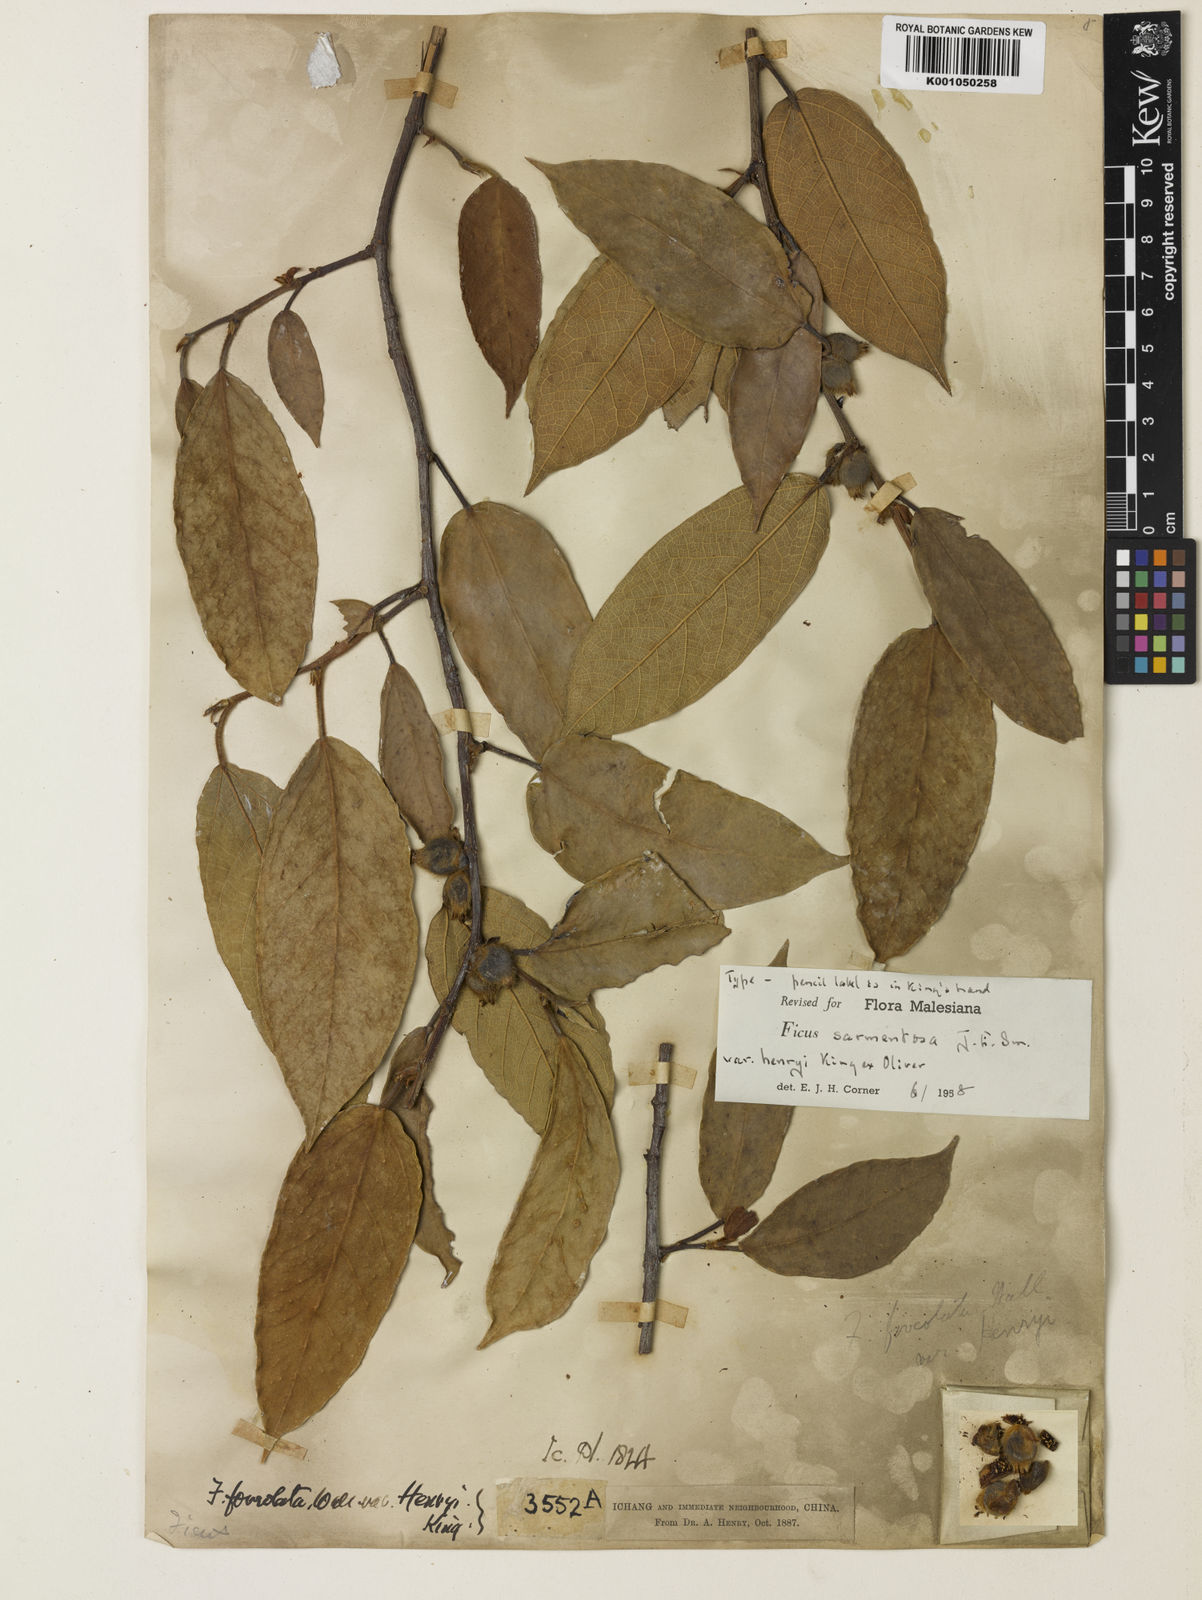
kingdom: Plantae
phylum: Tracheophyta
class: Magnoliopsida
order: Rosales
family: Moraceae
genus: Ficus
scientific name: Ficus sarmentosa
